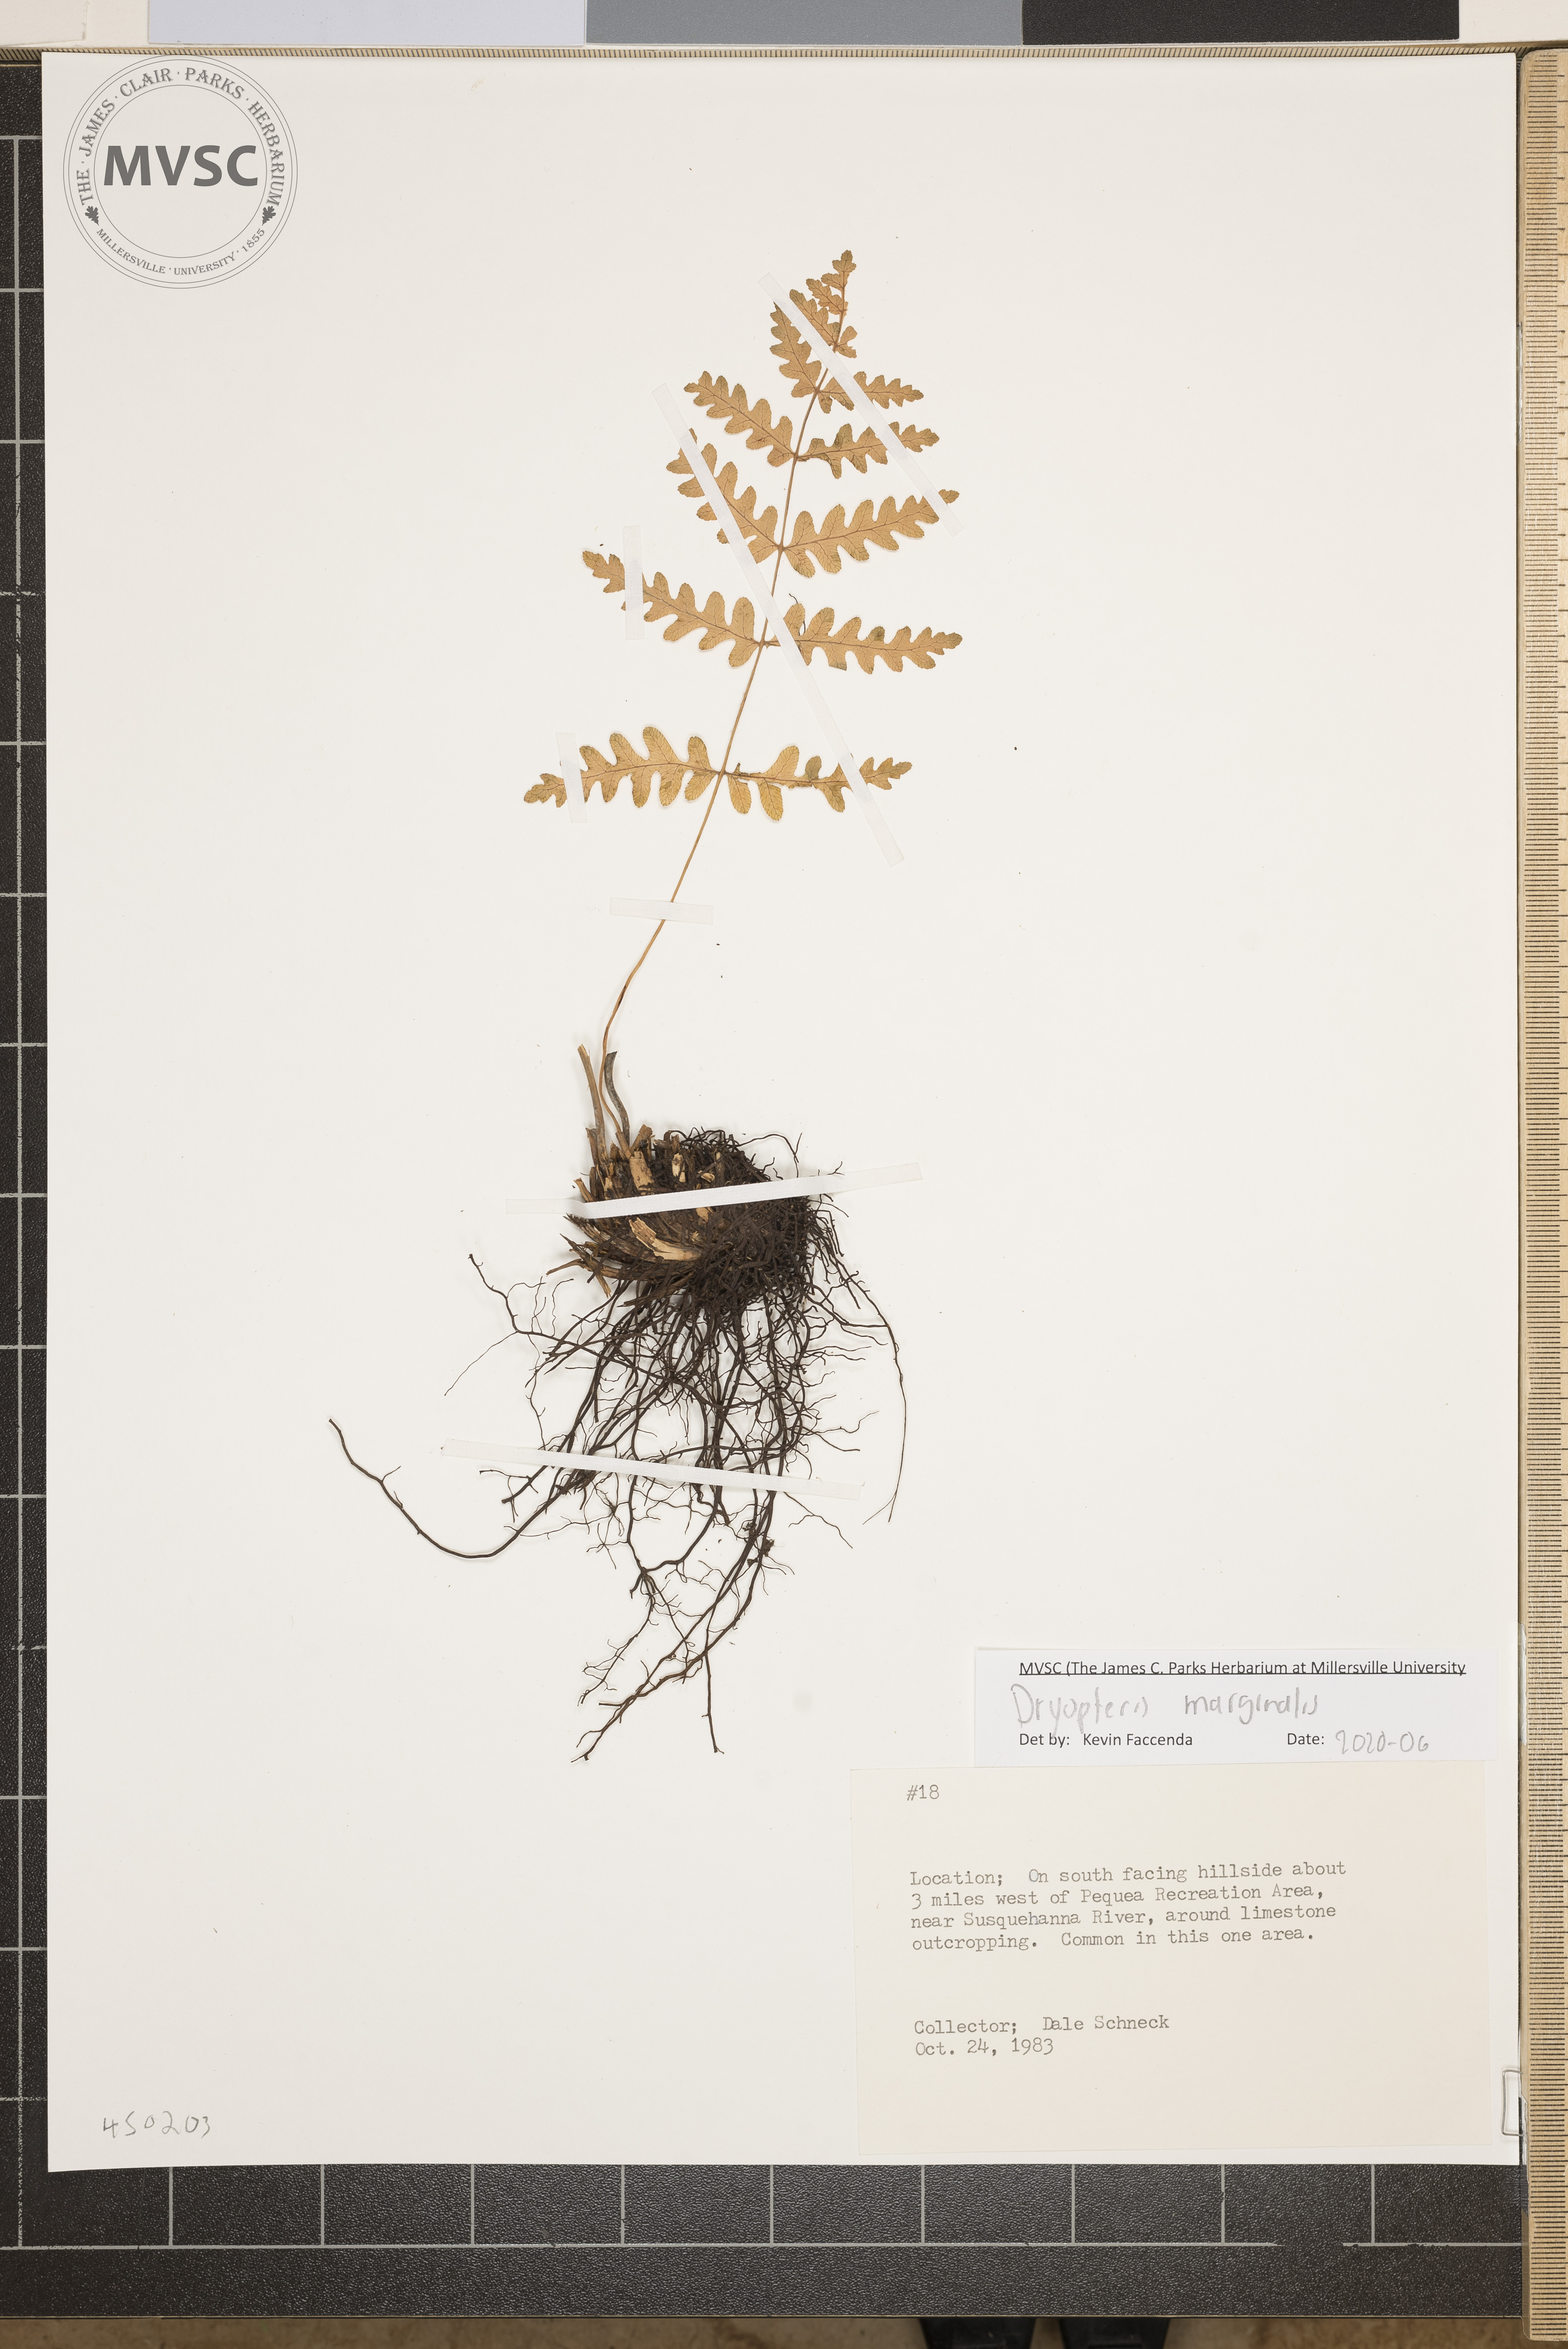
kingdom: Plantae
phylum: Tracheophyta
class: Polypodiopsida
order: Polypodiales
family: Dryopteridaceae
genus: Dryopteris
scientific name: Dryopteris marginalis
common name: Marginal wood fern
